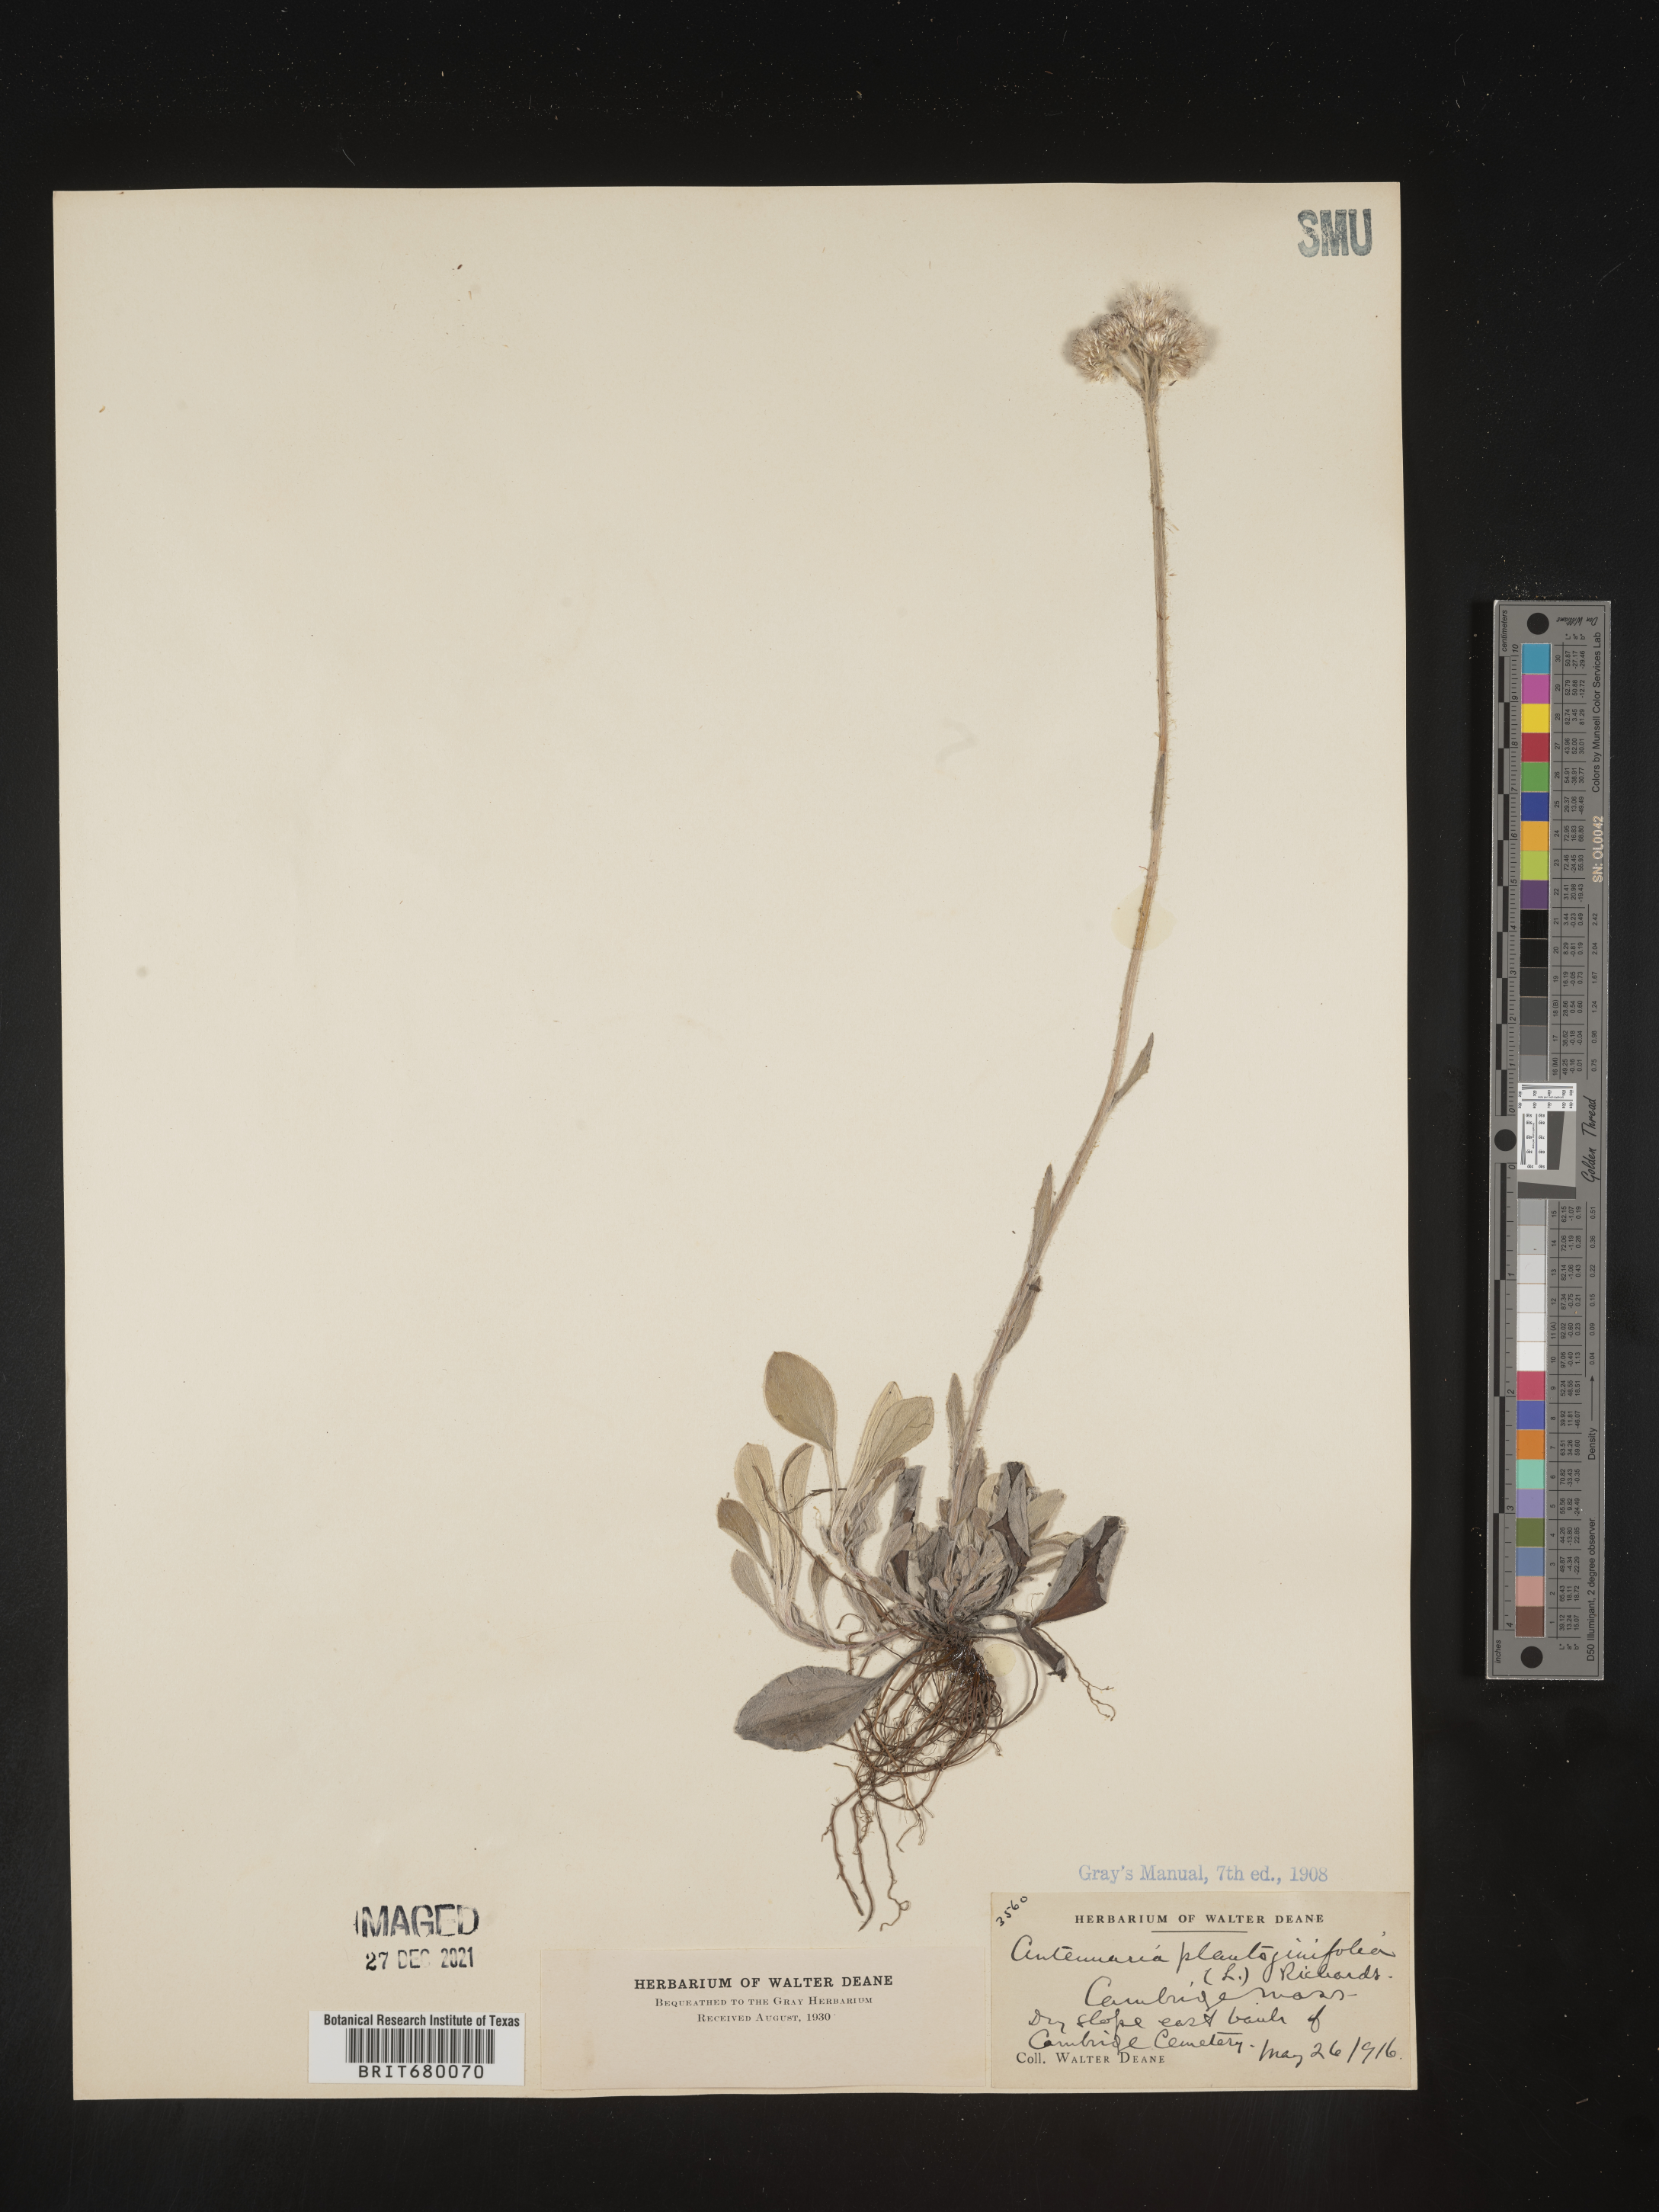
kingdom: Plantae
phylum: Tracheophyta
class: Magnoliopsida
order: Asterales
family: Asteraceae
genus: Antennaria
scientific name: Antennaria plantaginifolia
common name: Plantain-leaved pussytoes
